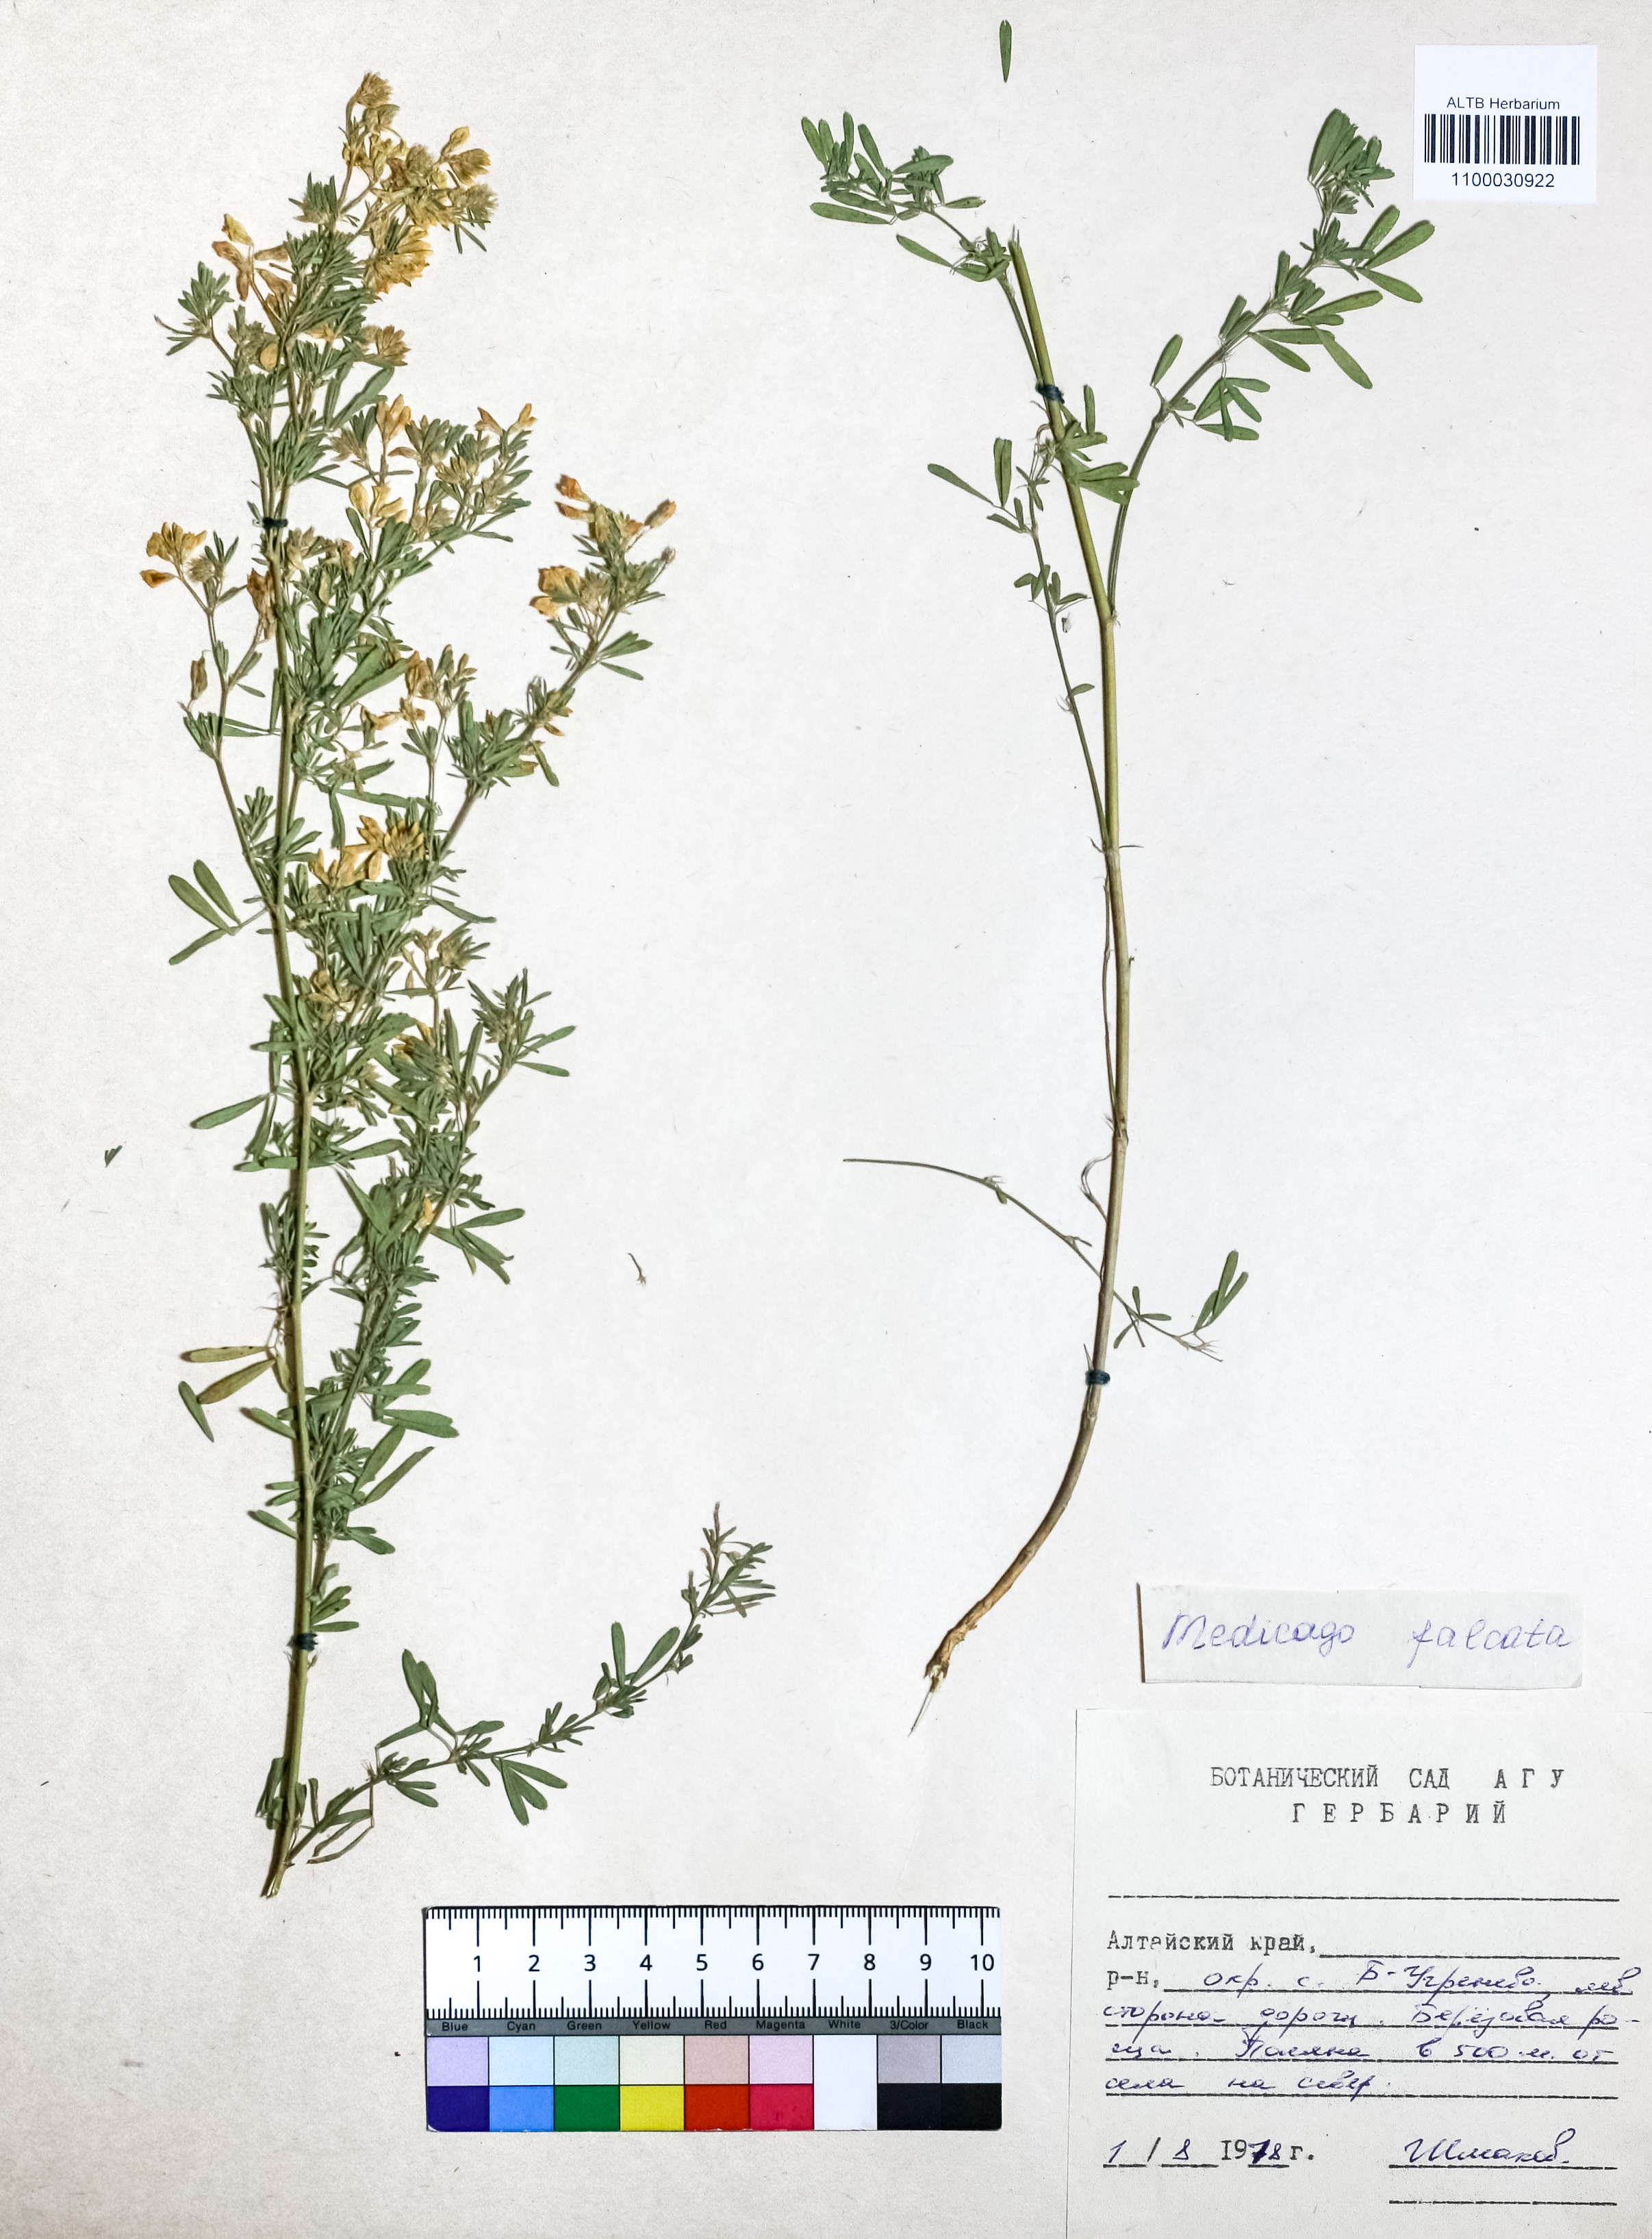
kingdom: Plantae
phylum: Tracheophyta
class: Magnoliopsida
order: Fabales
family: Fabaceae
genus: Medicago
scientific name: Medicago falcata
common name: Sickle medick
